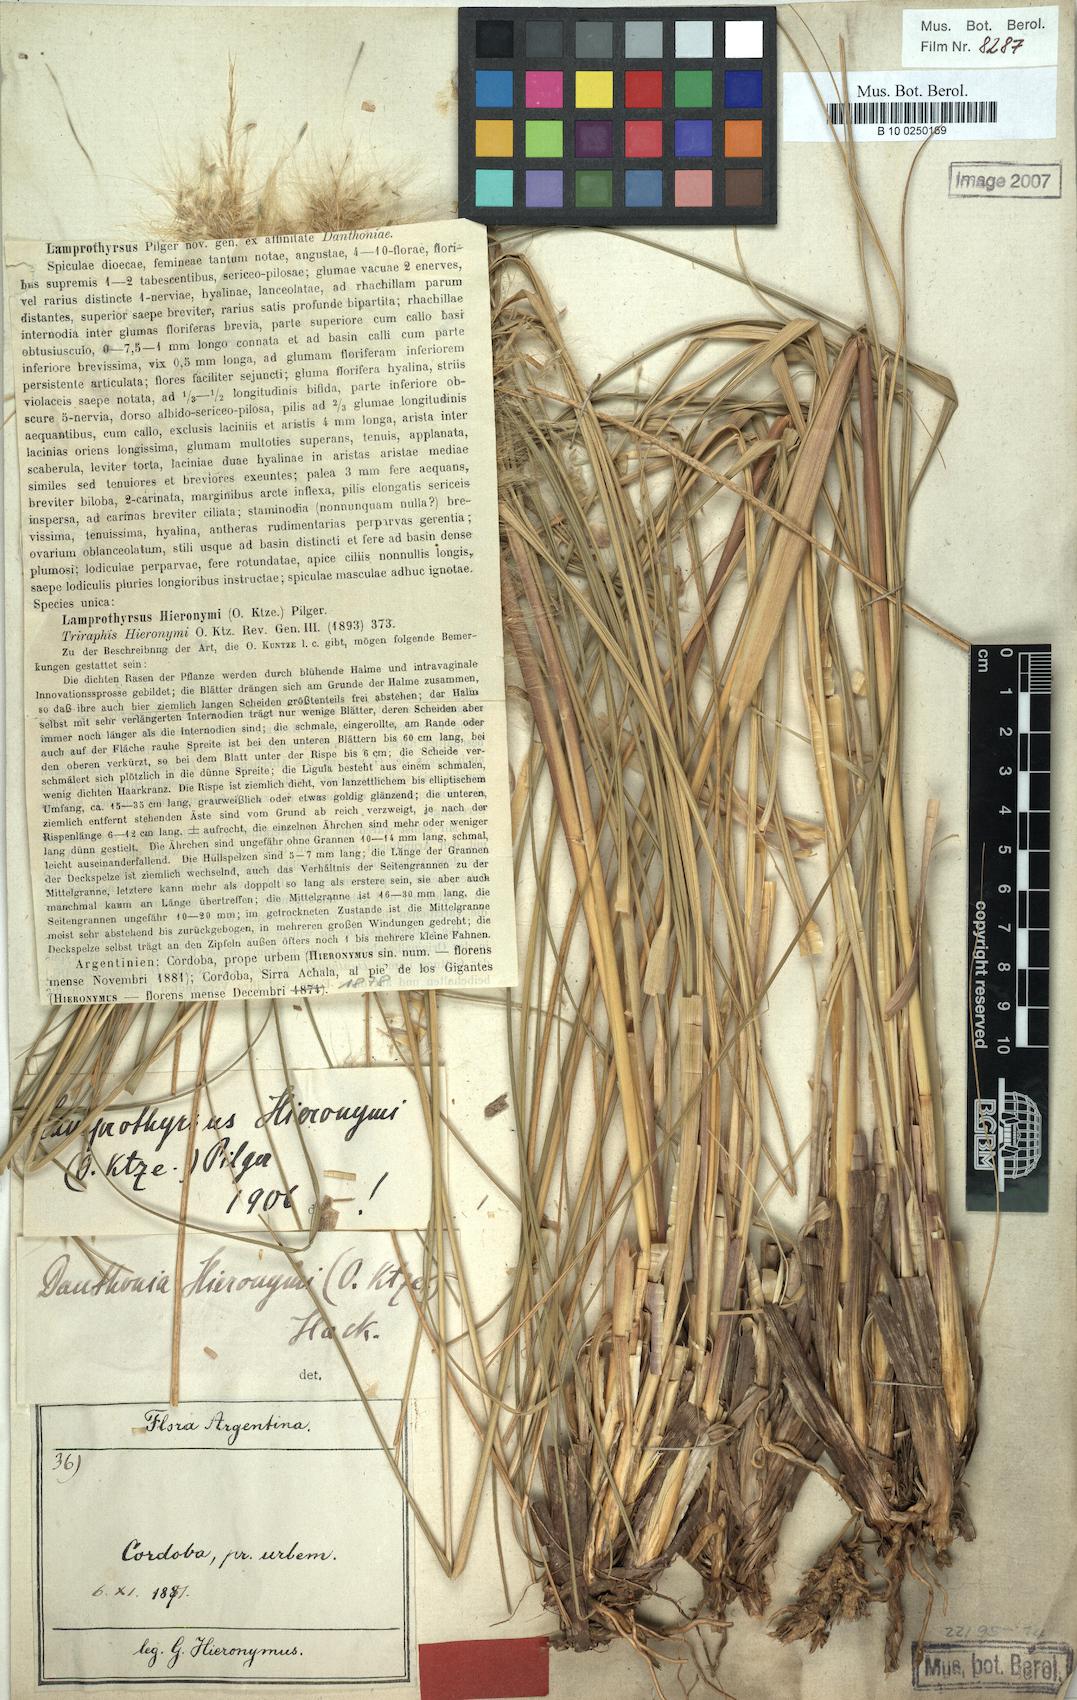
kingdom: Plantae
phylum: Tracheophyta
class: Liliopsida
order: Poales
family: Poaceae
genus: Cortaderia
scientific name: Cortaderia hieronymi
